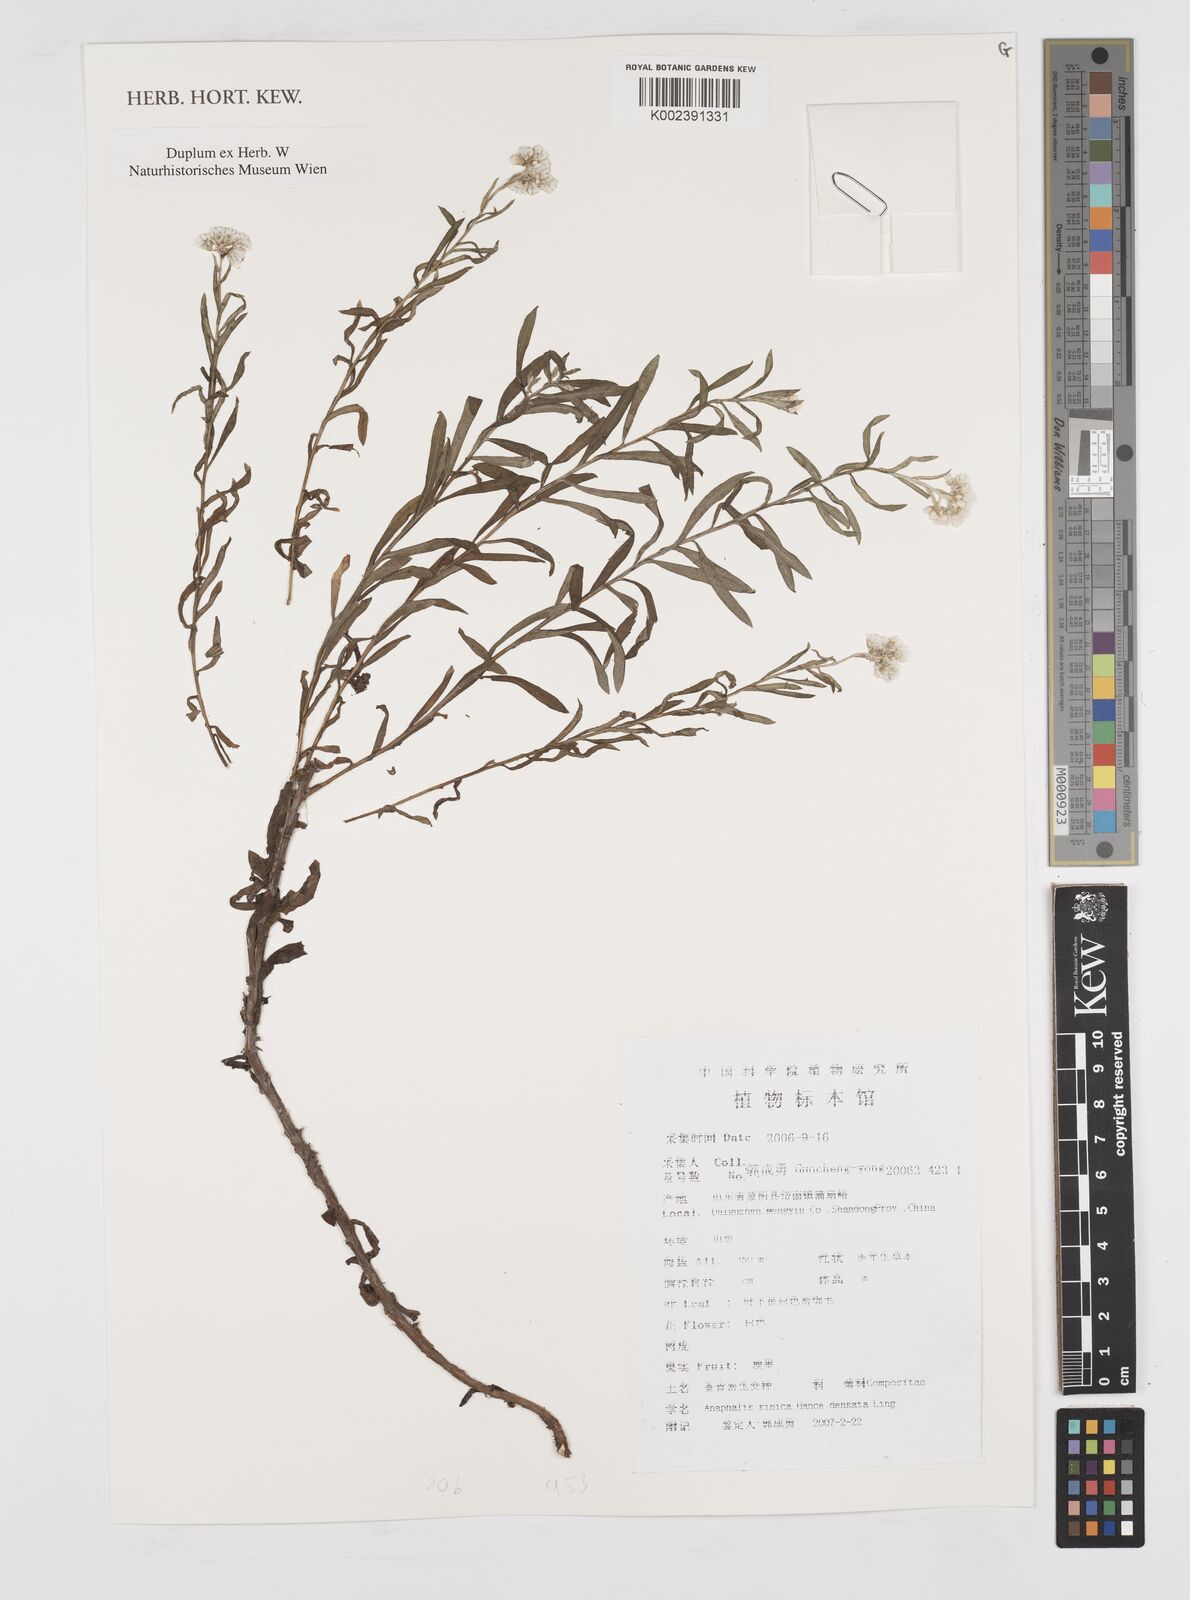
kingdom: Plantae
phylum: Tracheophyta
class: Magnoliopsida
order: Asterales
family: Asteraceae
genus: Anaphalis
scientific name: Anaphalis sinica
